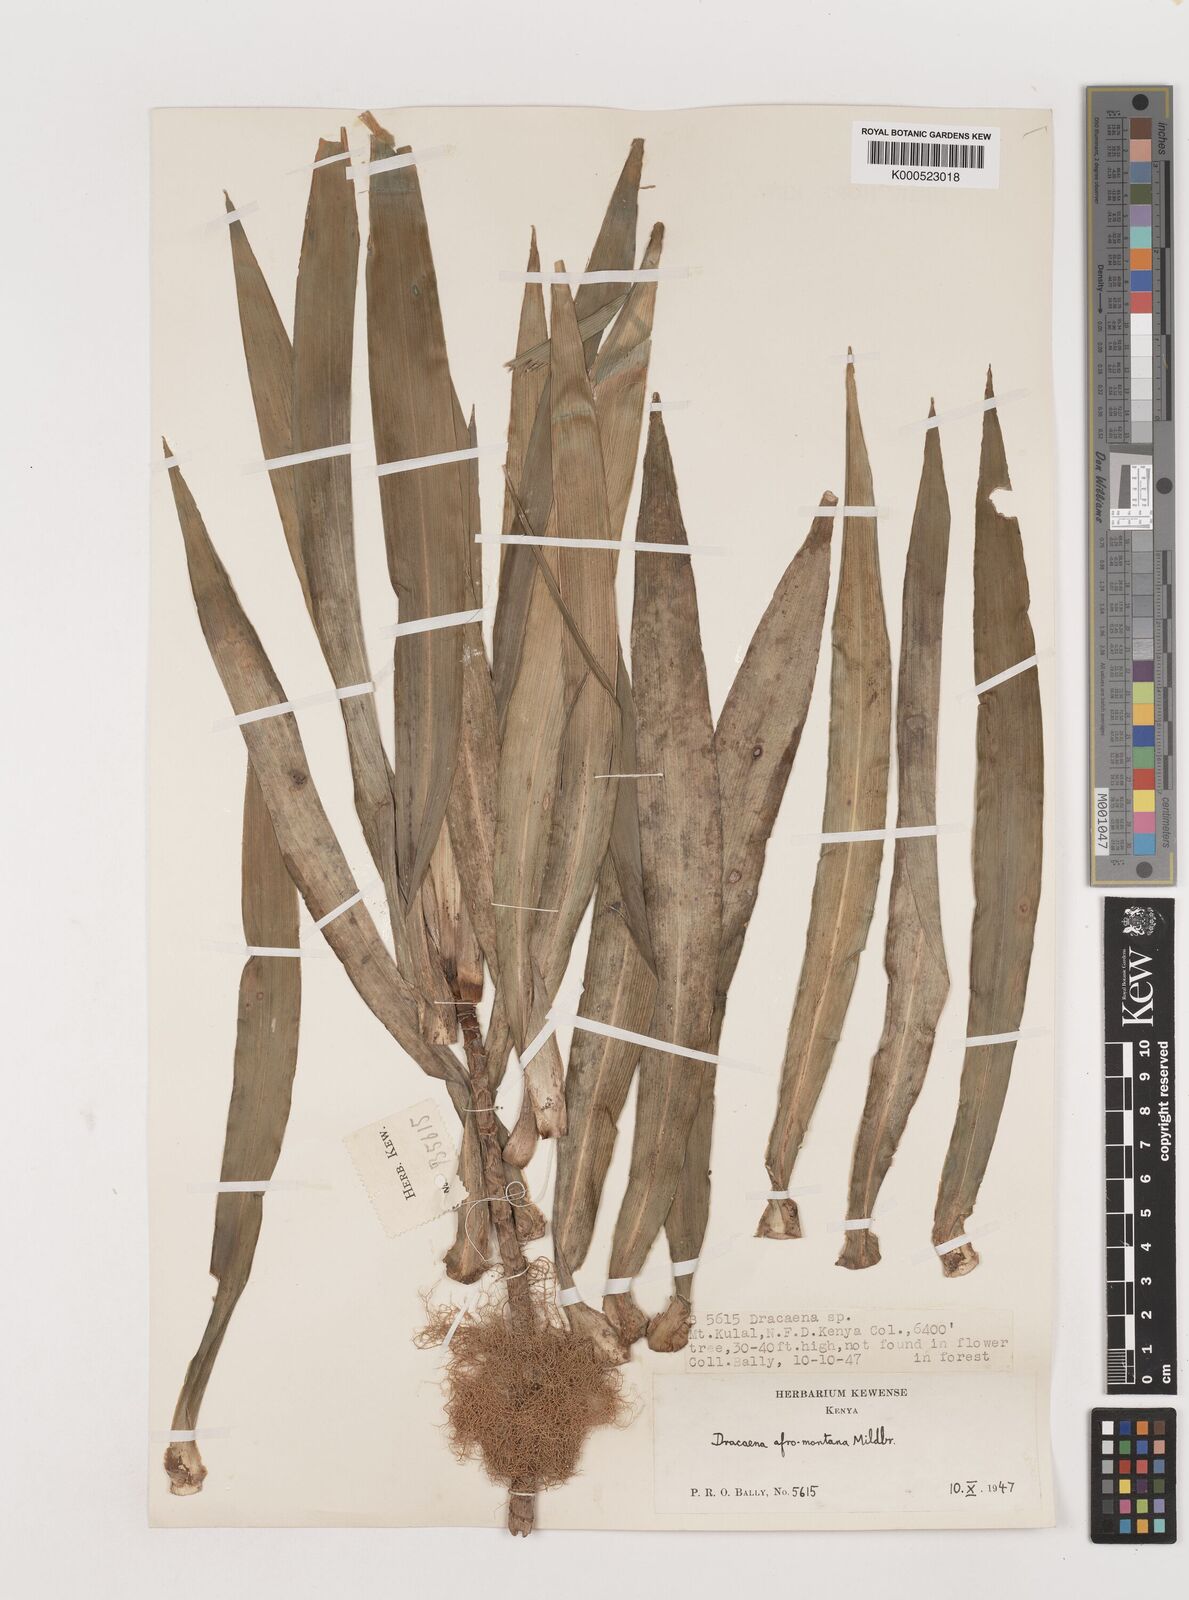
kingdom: Plantae
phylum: Tracheophyta
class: Liliopsida
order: Asparagales
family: Asparagaceae
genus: Dracaena
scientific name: Dracaena afromontana
